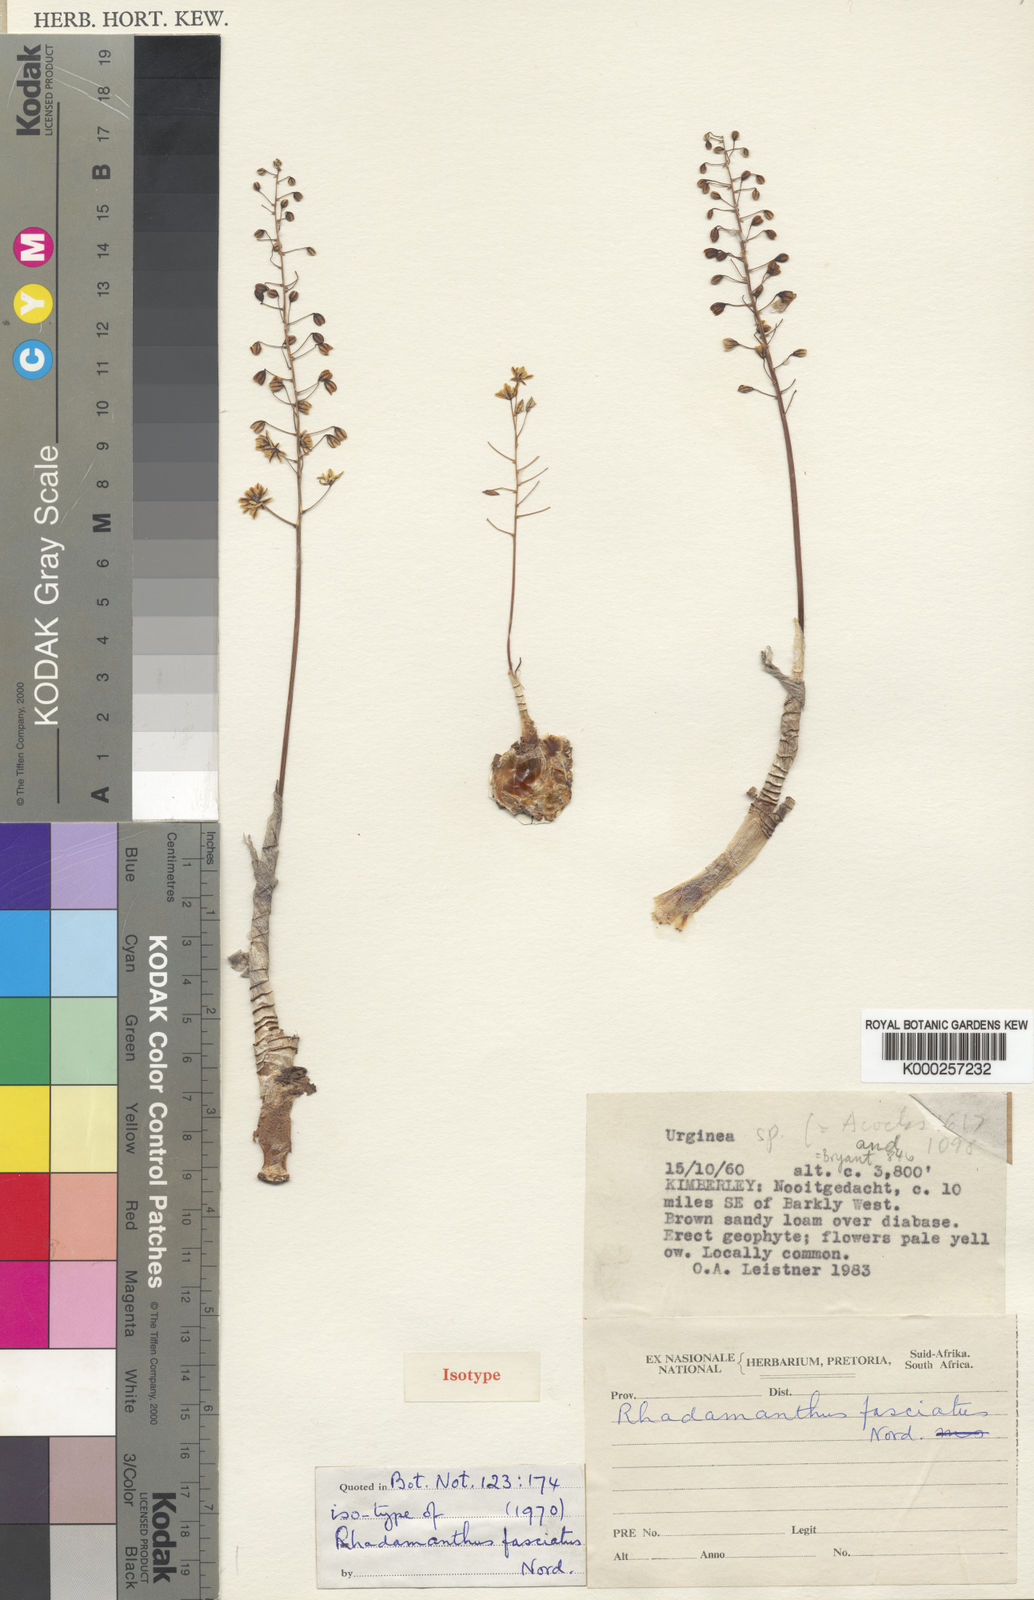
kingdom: Plantae
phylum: Tracheophyta
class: Liliopsida
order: Asparagales
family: Asparagaceae
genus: Drimia
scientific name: Drimia fasciata
